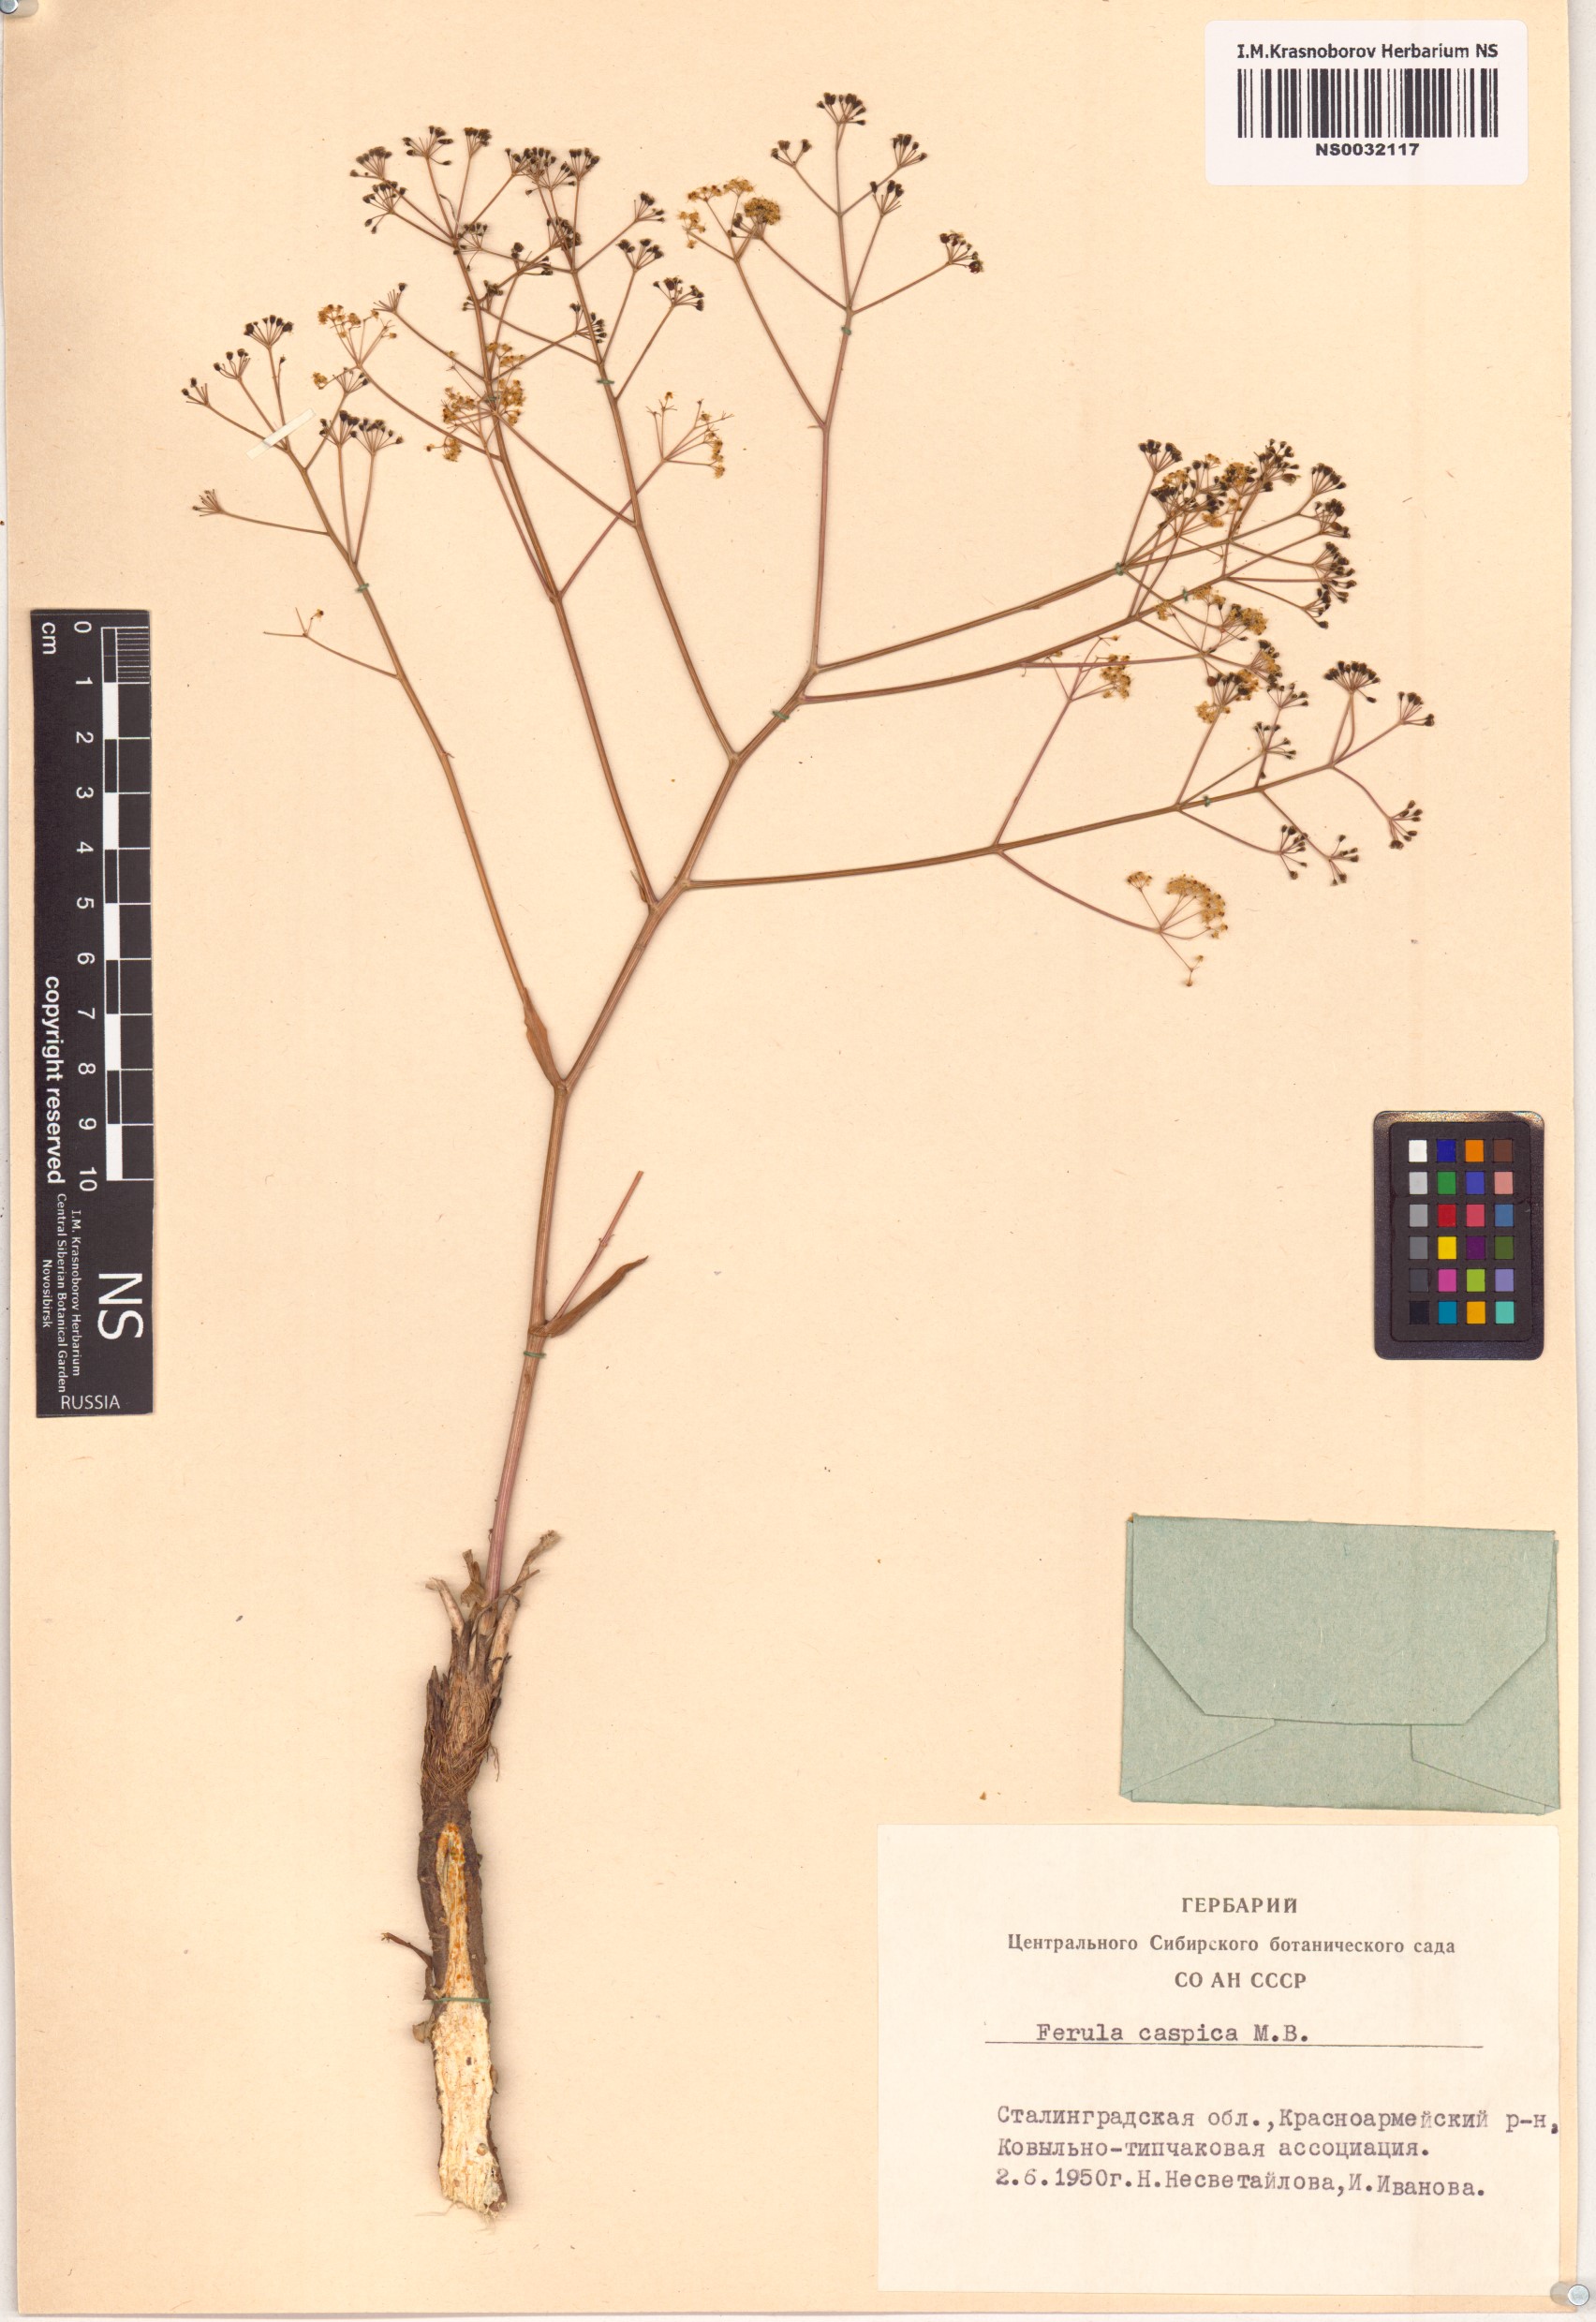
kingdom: Plantae
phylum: Tracheophyta
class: Magnoliopsida
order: Apiales
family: Apiaceae
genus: Ferula
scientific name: Ferula caspica
